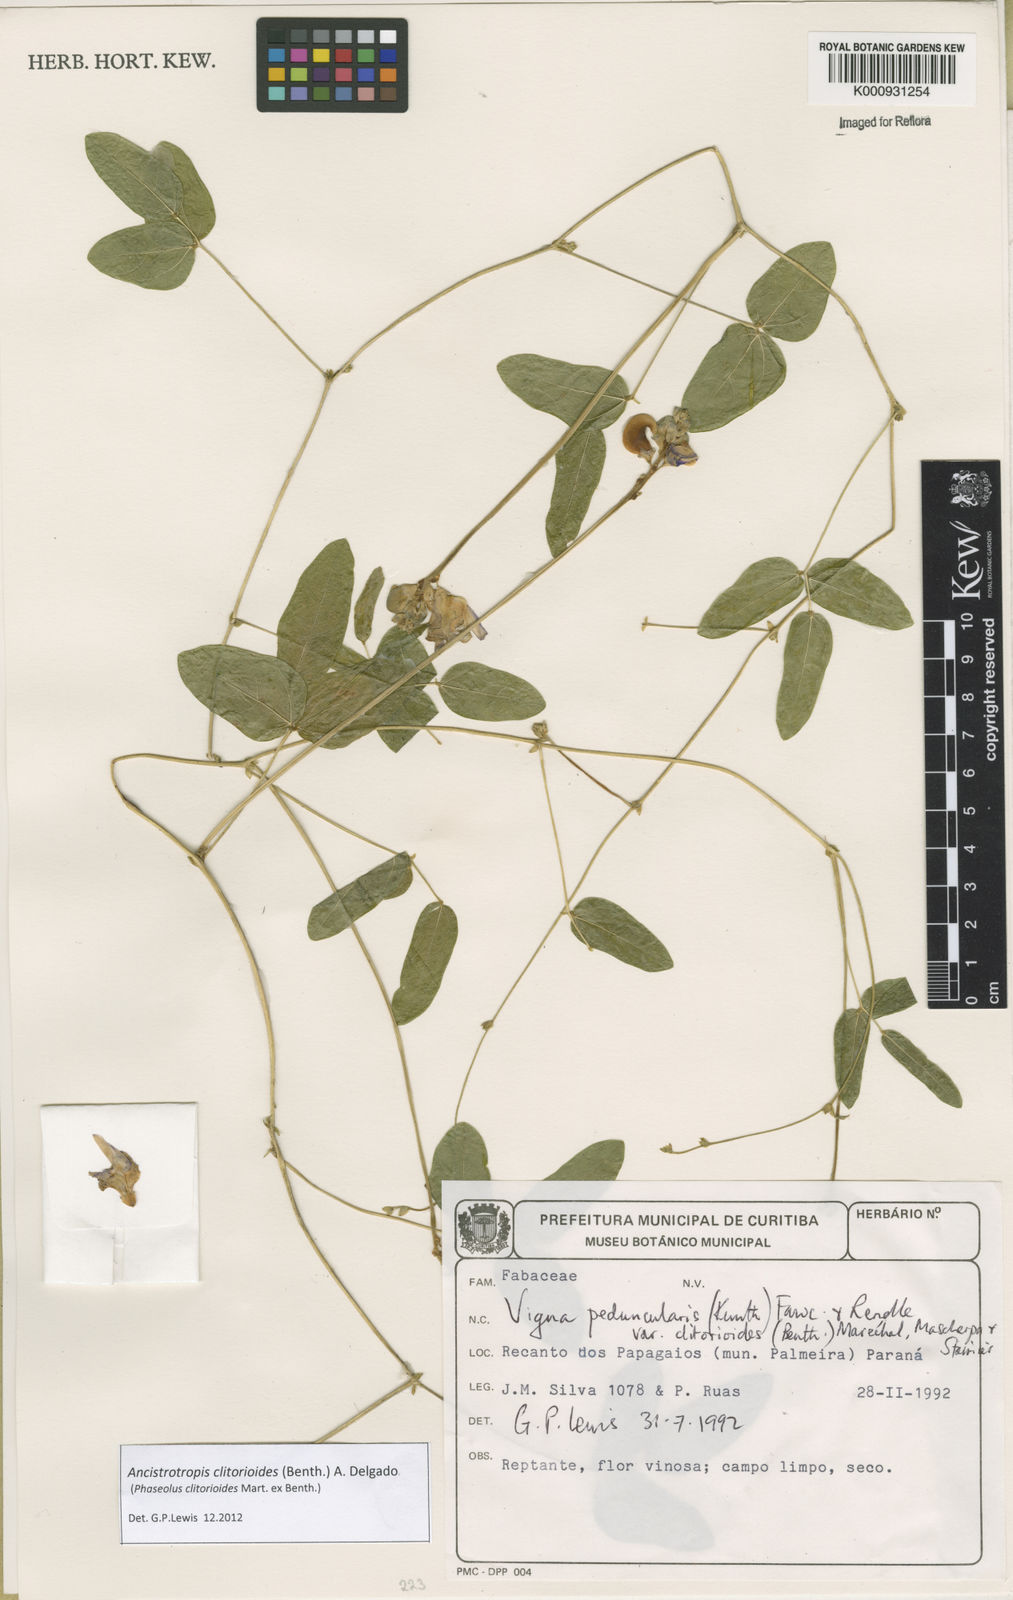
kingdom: Plantae
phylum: Tracheophyta
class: Magnoliopsida
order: Fabales
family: Fabaceae
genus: Ancistrotropis
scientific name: Ancistrotropis clitorioides
